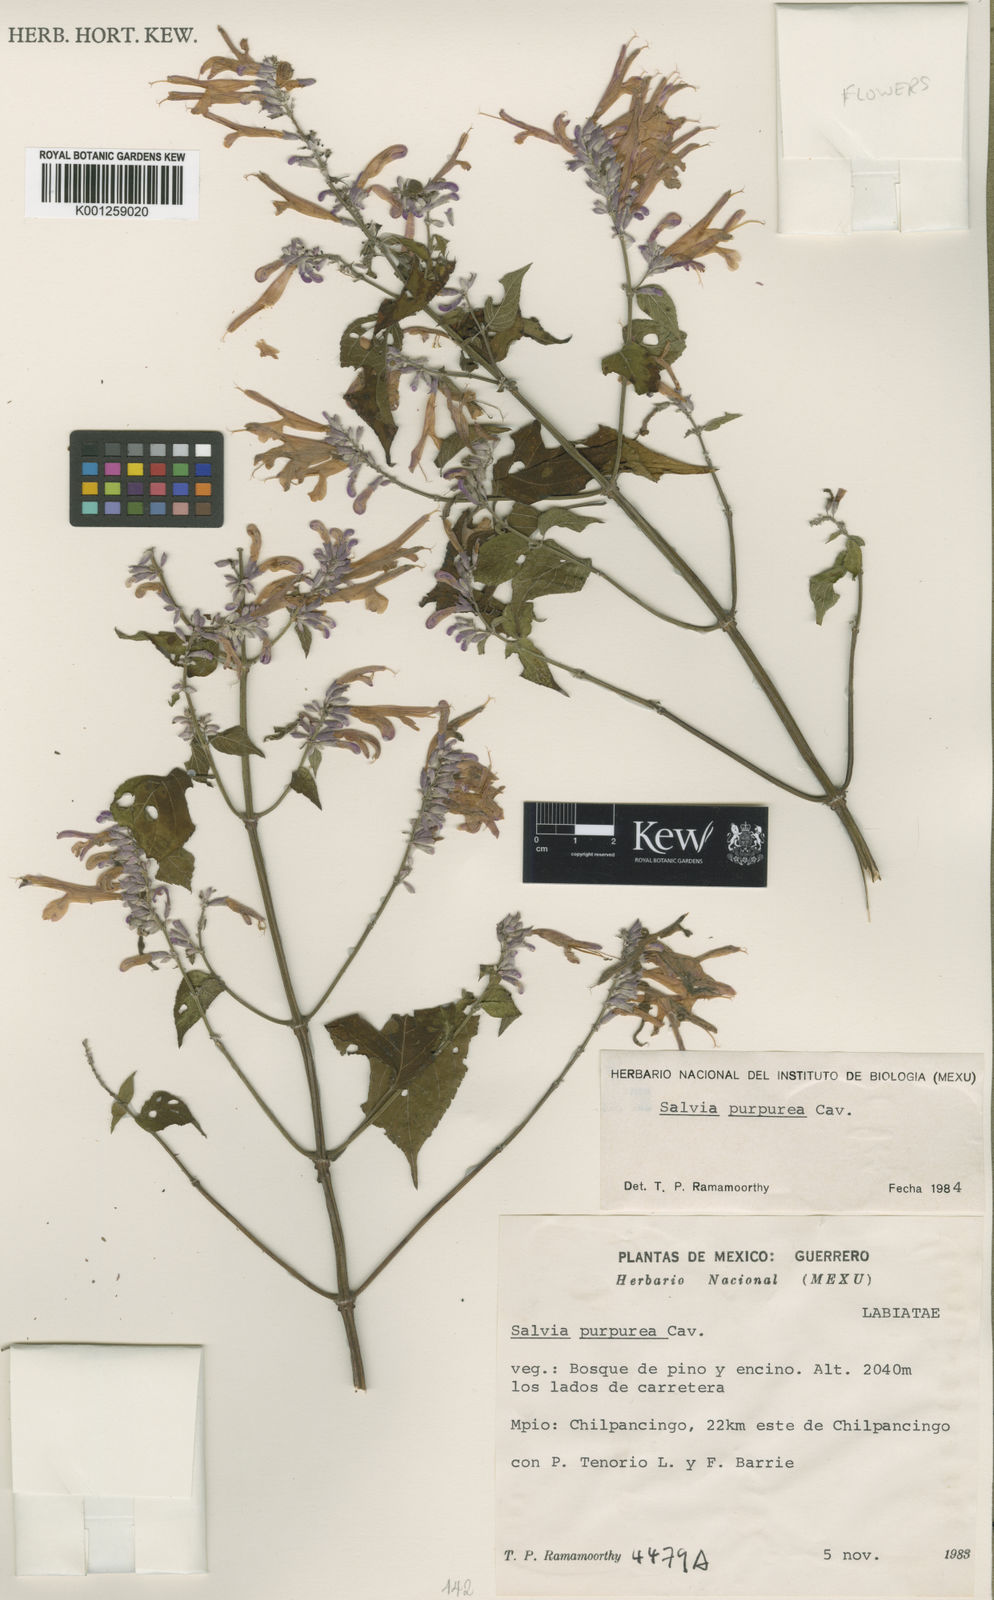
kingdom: Plantae
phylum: Tracheophyta
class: Magnoliopsida
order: Lamiales
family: Lamiaceae
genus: Salvia
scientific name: Salvia purpurea
